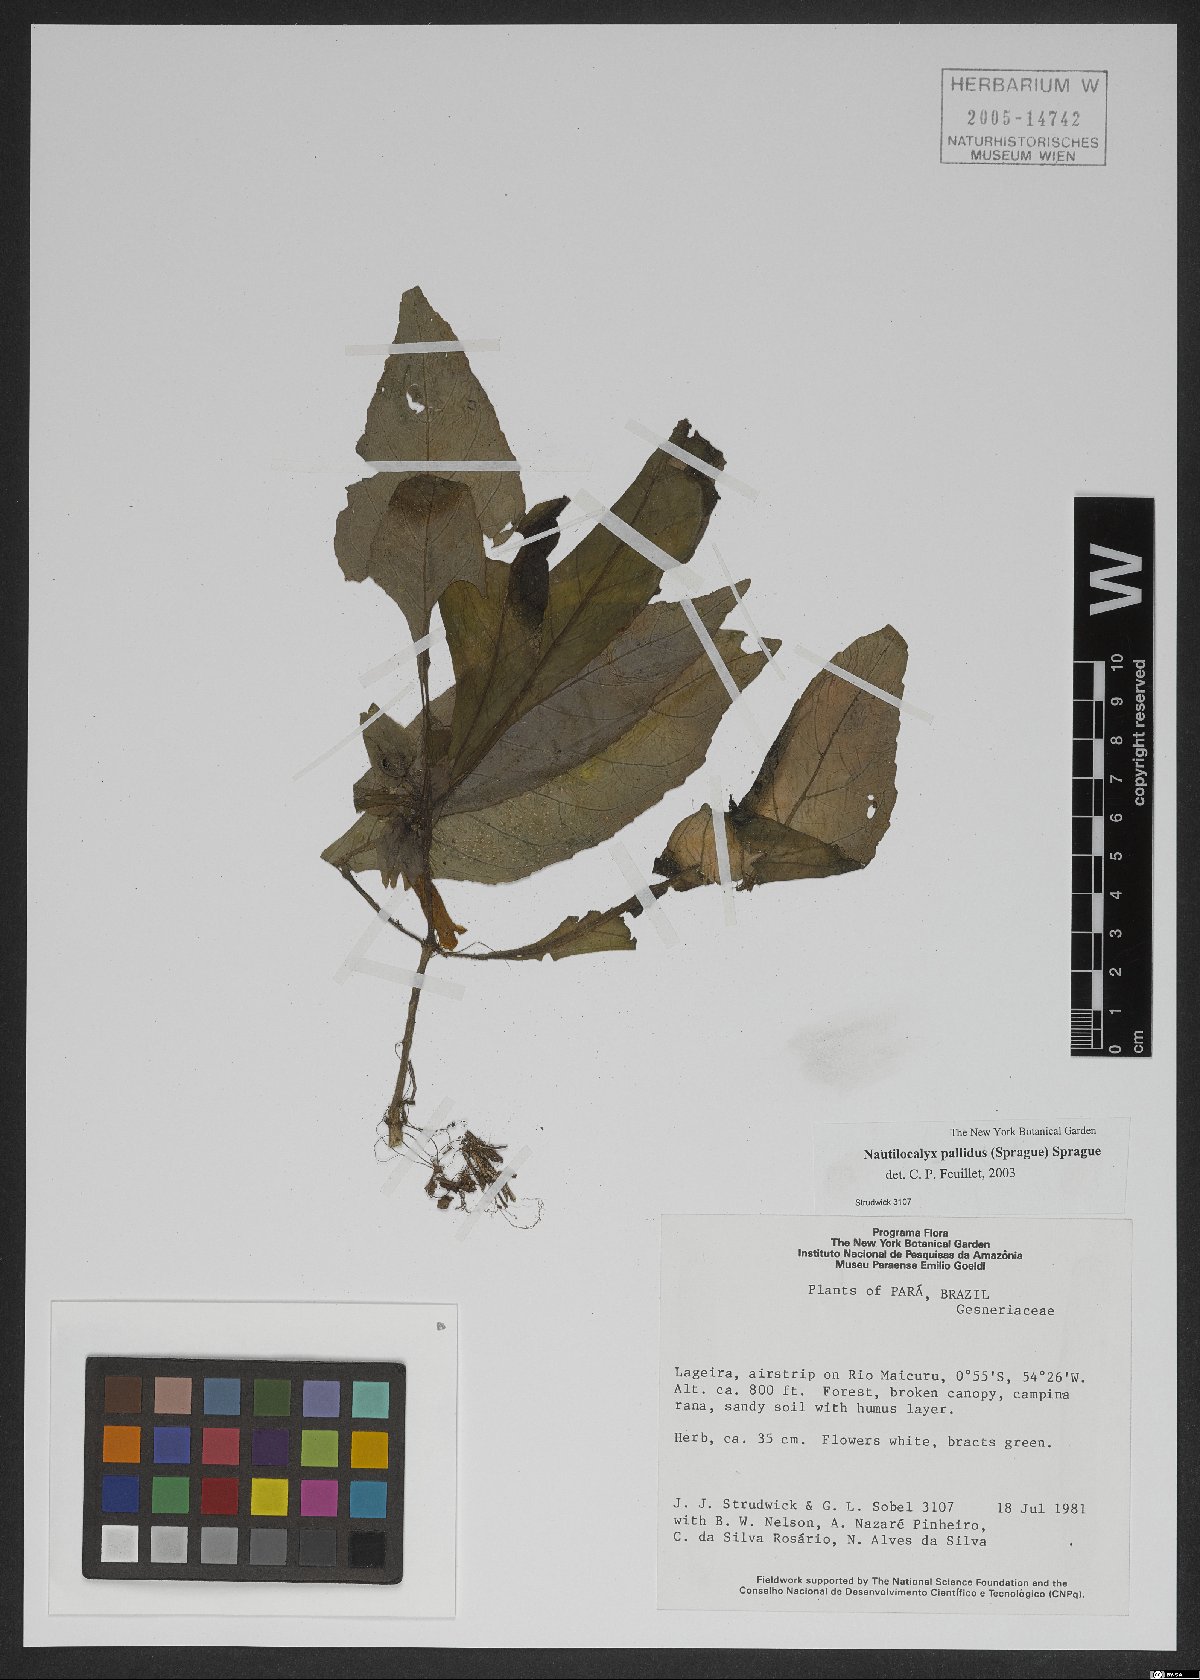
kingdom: Plantae
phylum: Tracheophyta
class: Magnoliopsida
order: Lamiales
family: Gesneriaceae
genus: Nautilocalyx
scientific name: Nautilocalyx pallidus
